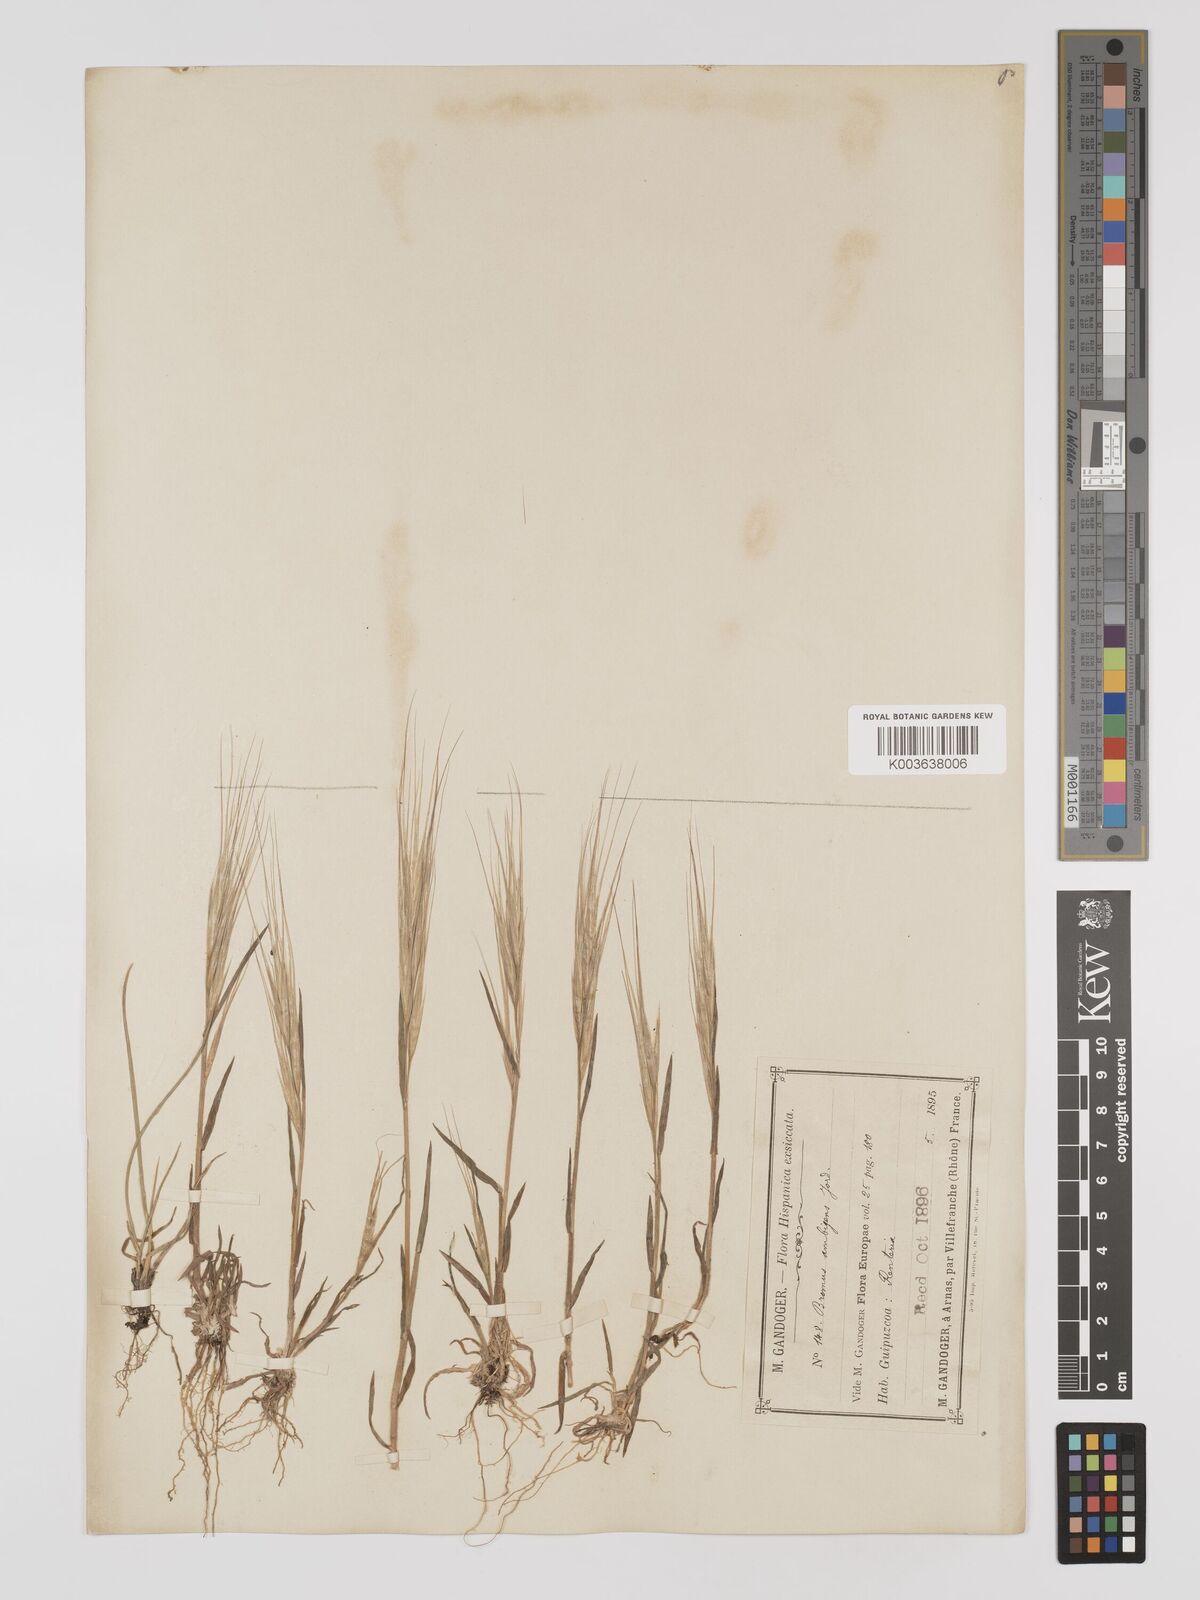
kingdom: Plantae
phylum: Tracheophyta
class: Liliopsida
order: Poales
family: Poaceae
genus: Bromus
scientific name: Bromus
